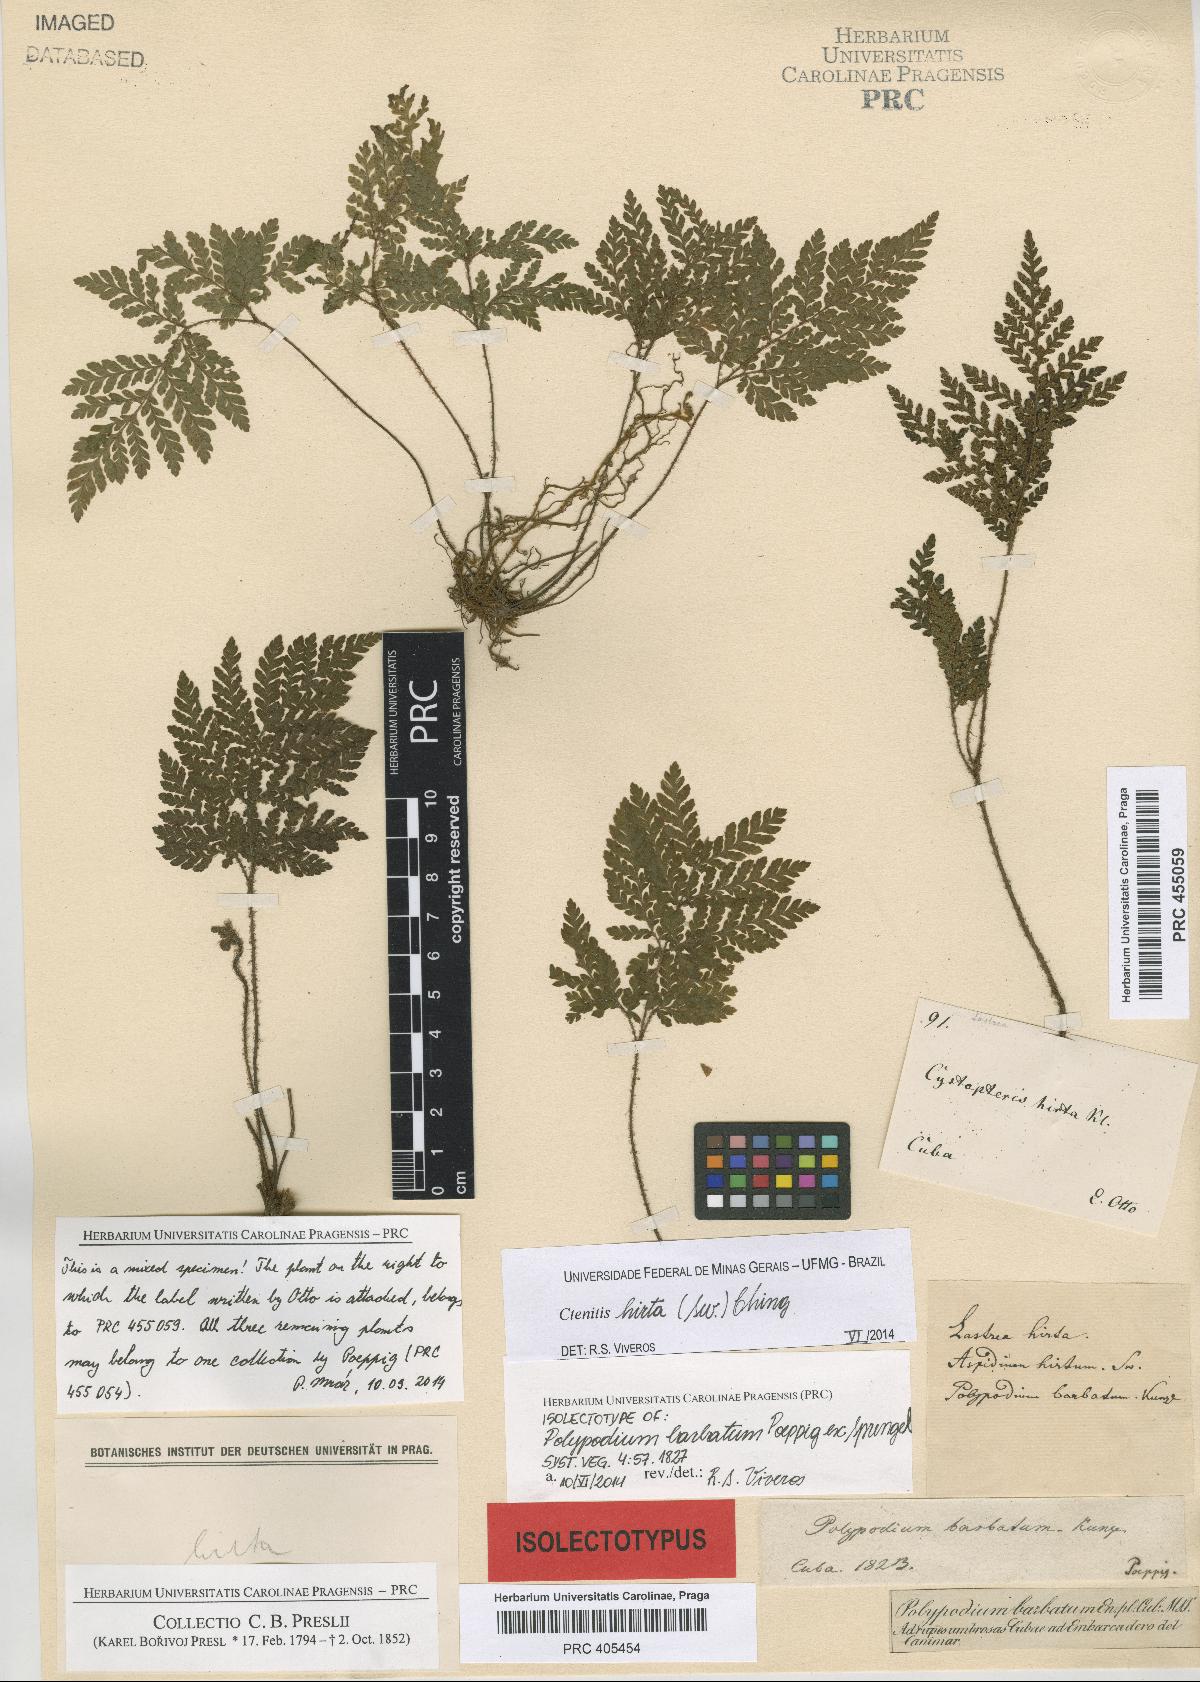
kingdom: Plantae
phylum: Tracheophyta
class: Polypodiopsida
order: Polypodiales
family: Polypodiaceae
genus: Polypodium
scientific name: Polypodium barbatum
